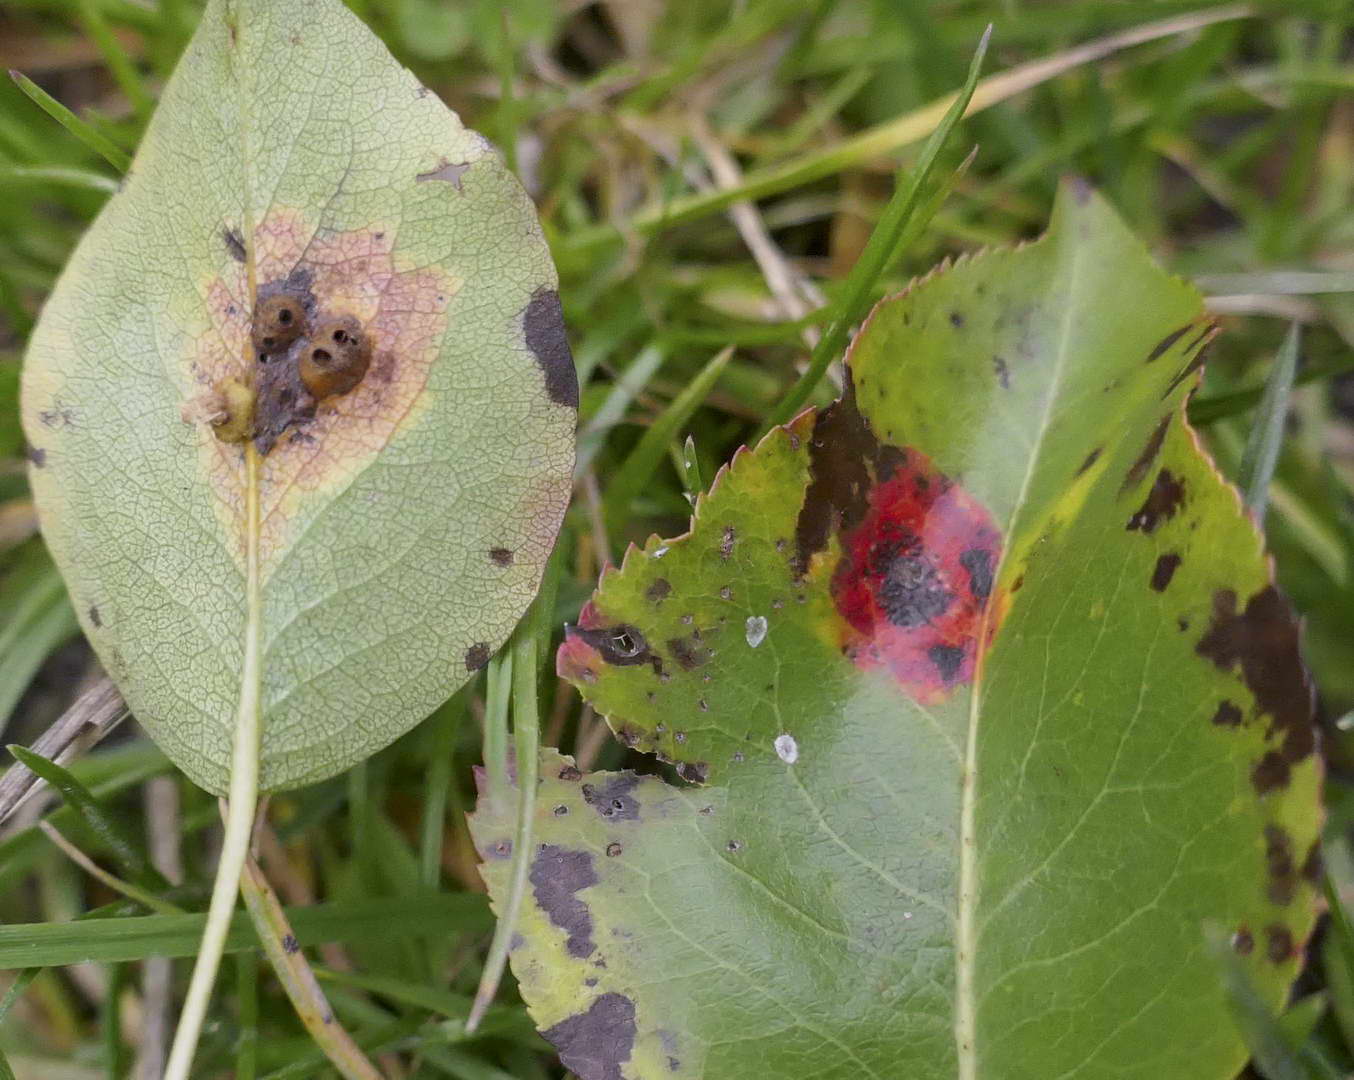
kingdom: Fungi
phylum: Basidiomycota
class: Pucciniomycetes
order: Pucciniales
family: Gymnosporangiaceae
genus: Gymnosporangium
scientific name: Gymnosporangium sabinae
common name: pæregitter-bævrerust
